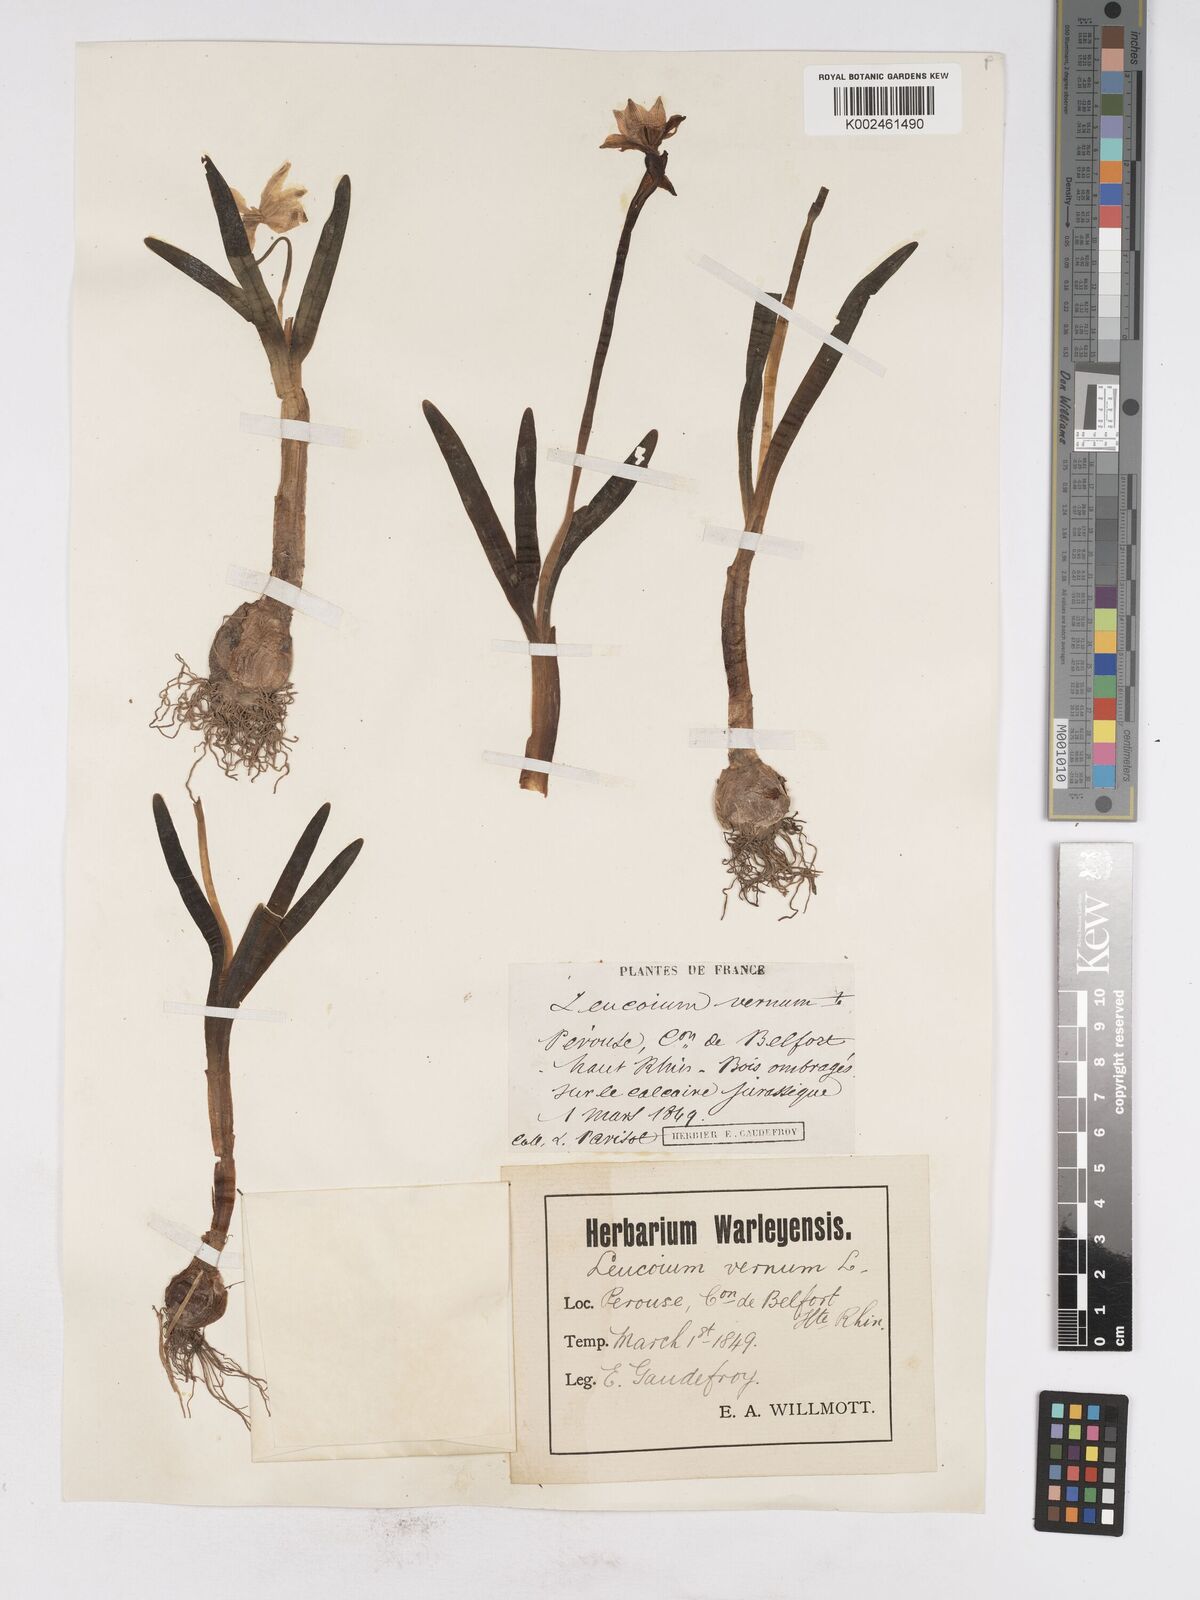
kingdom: Plantae
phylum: Tracheophyta
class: Liliopsida
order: Asparagales
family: Amaryllidaceae
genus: Leucojum
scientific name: Leucojum vernum
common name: Spring snowflake
